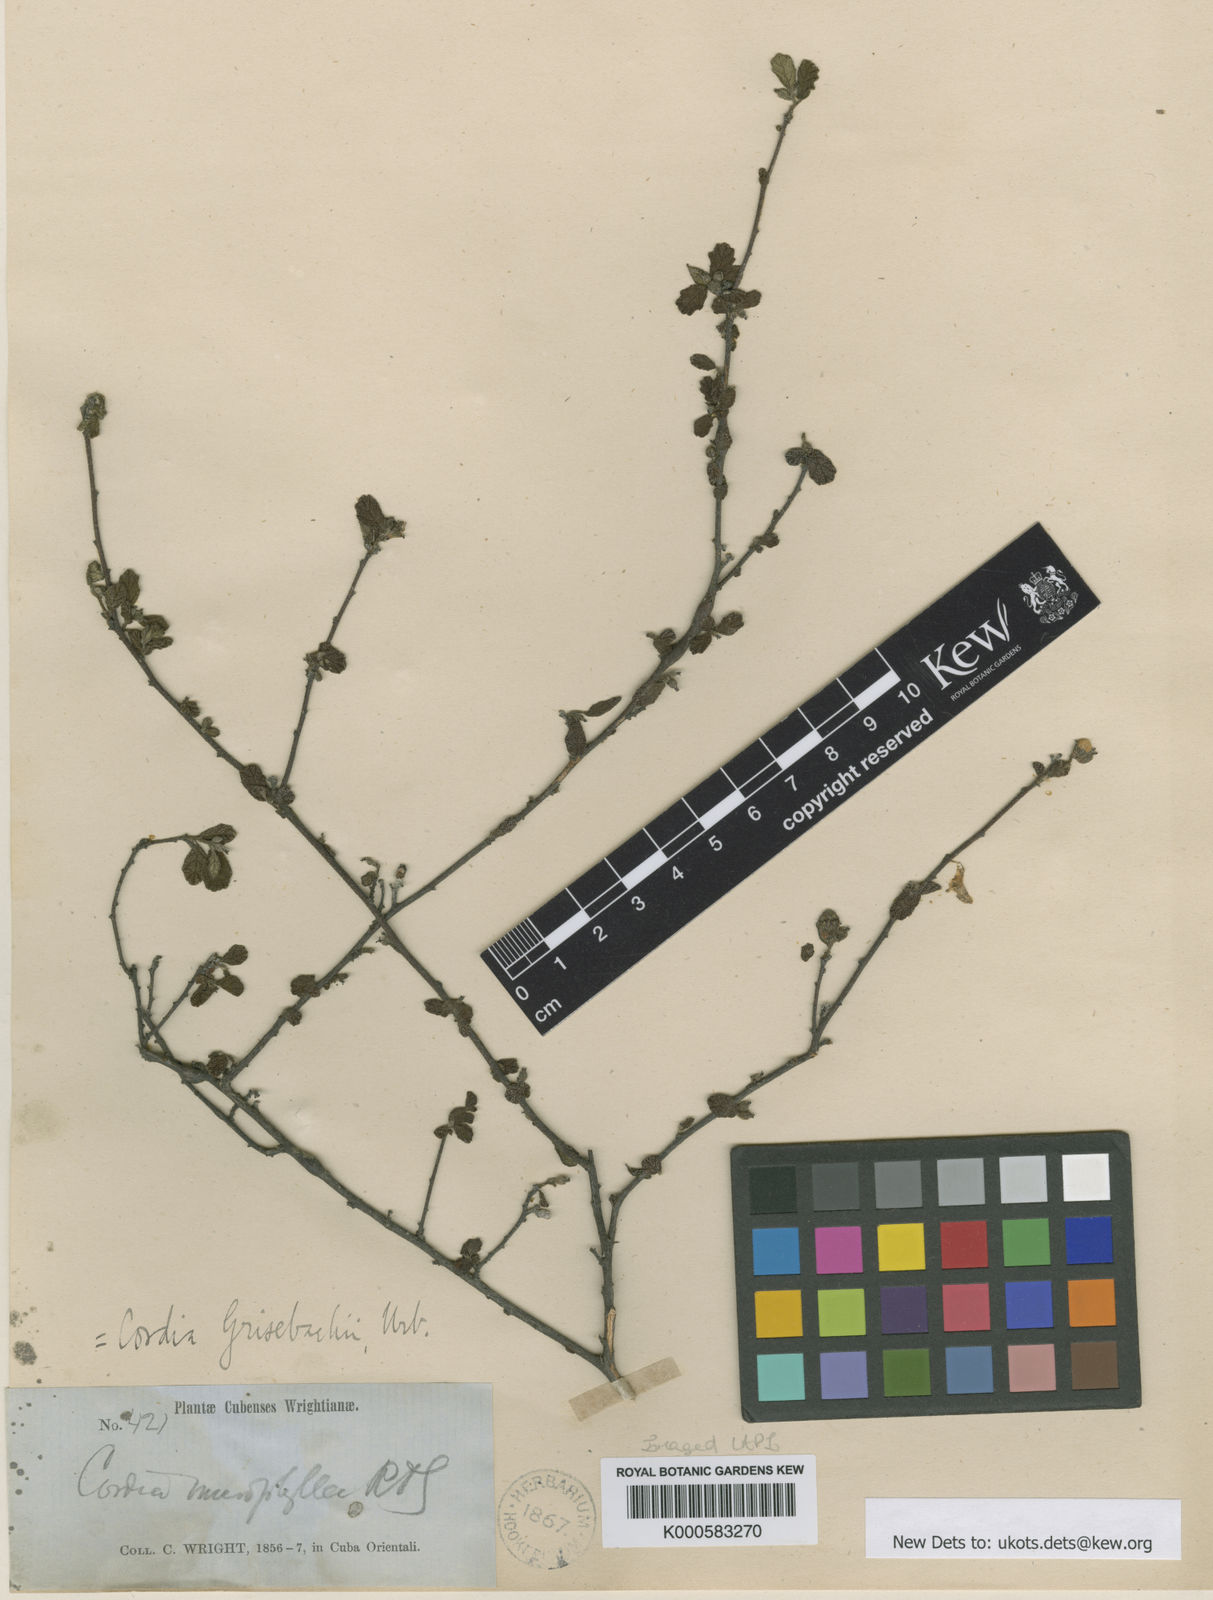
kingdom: Plantae
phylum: Tracheophyta
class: Magnoliopsida
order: Boraginales
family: Cordiaceae
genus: Varronia
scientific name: Varronia grisebachii
